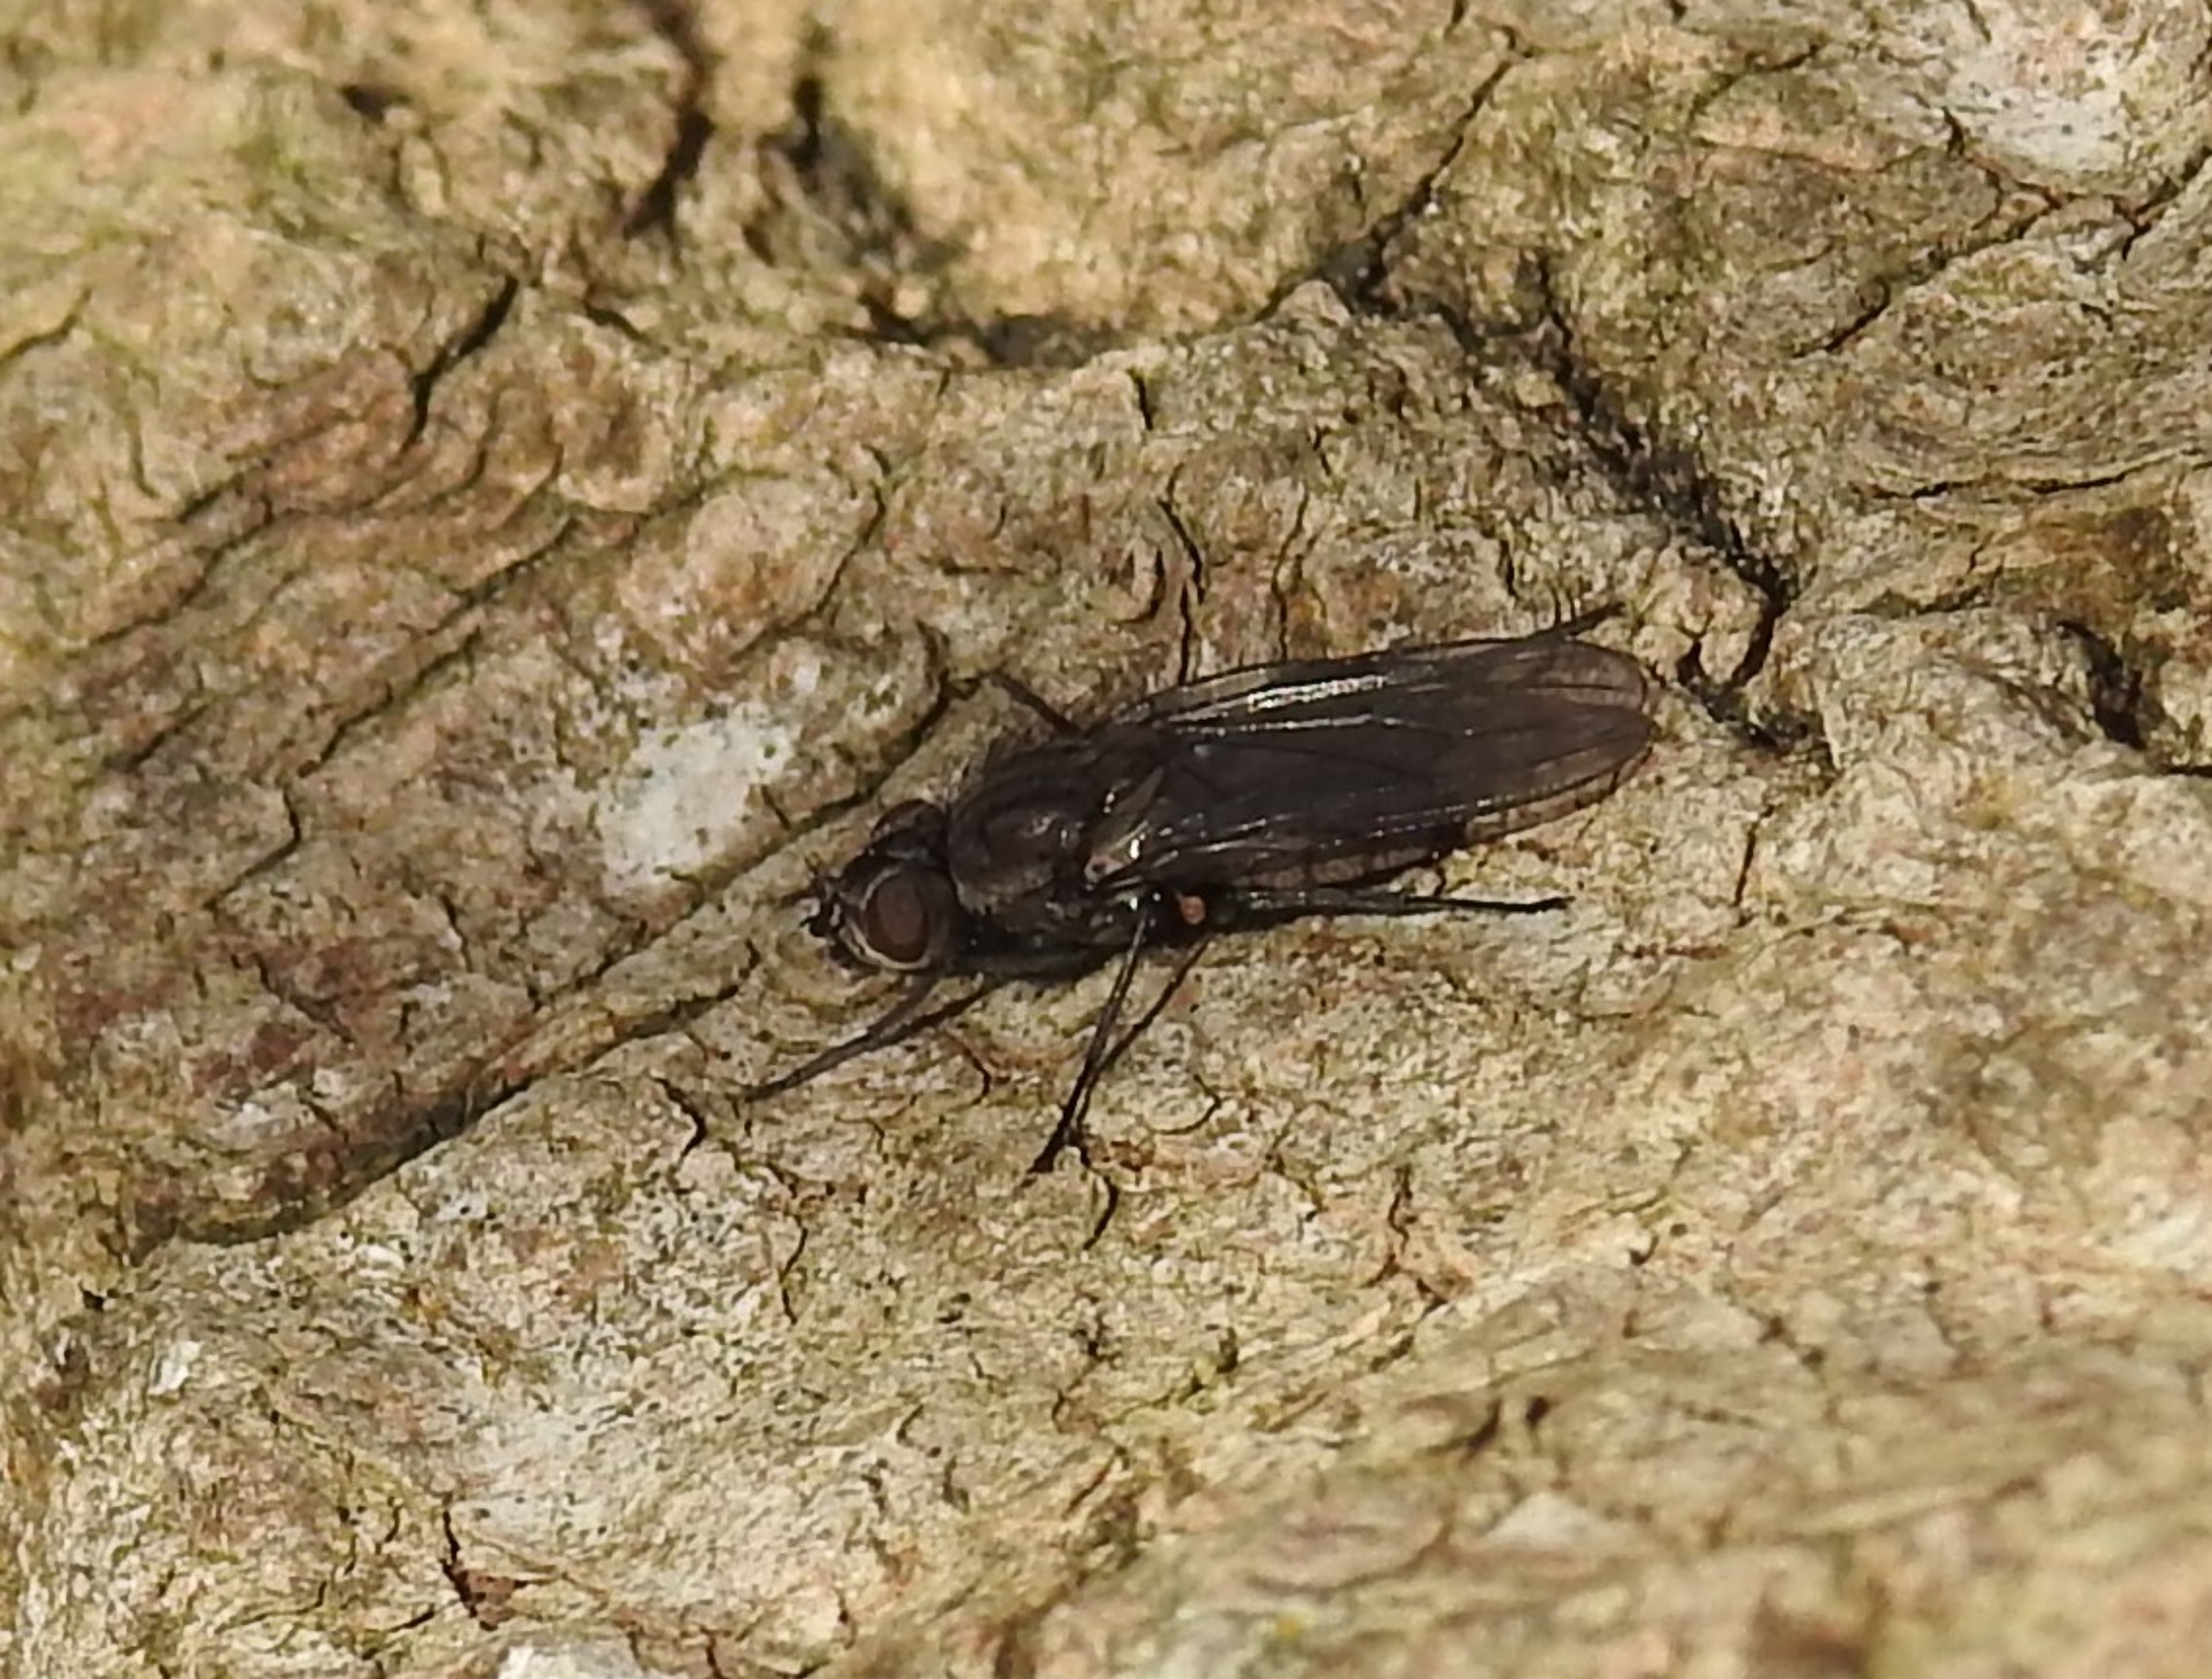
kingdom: Animalia
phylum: Arthropoda
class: Insecta
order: Diptera
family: Anthomyiidae
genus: Botanophila
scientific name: Botanophila striolata
